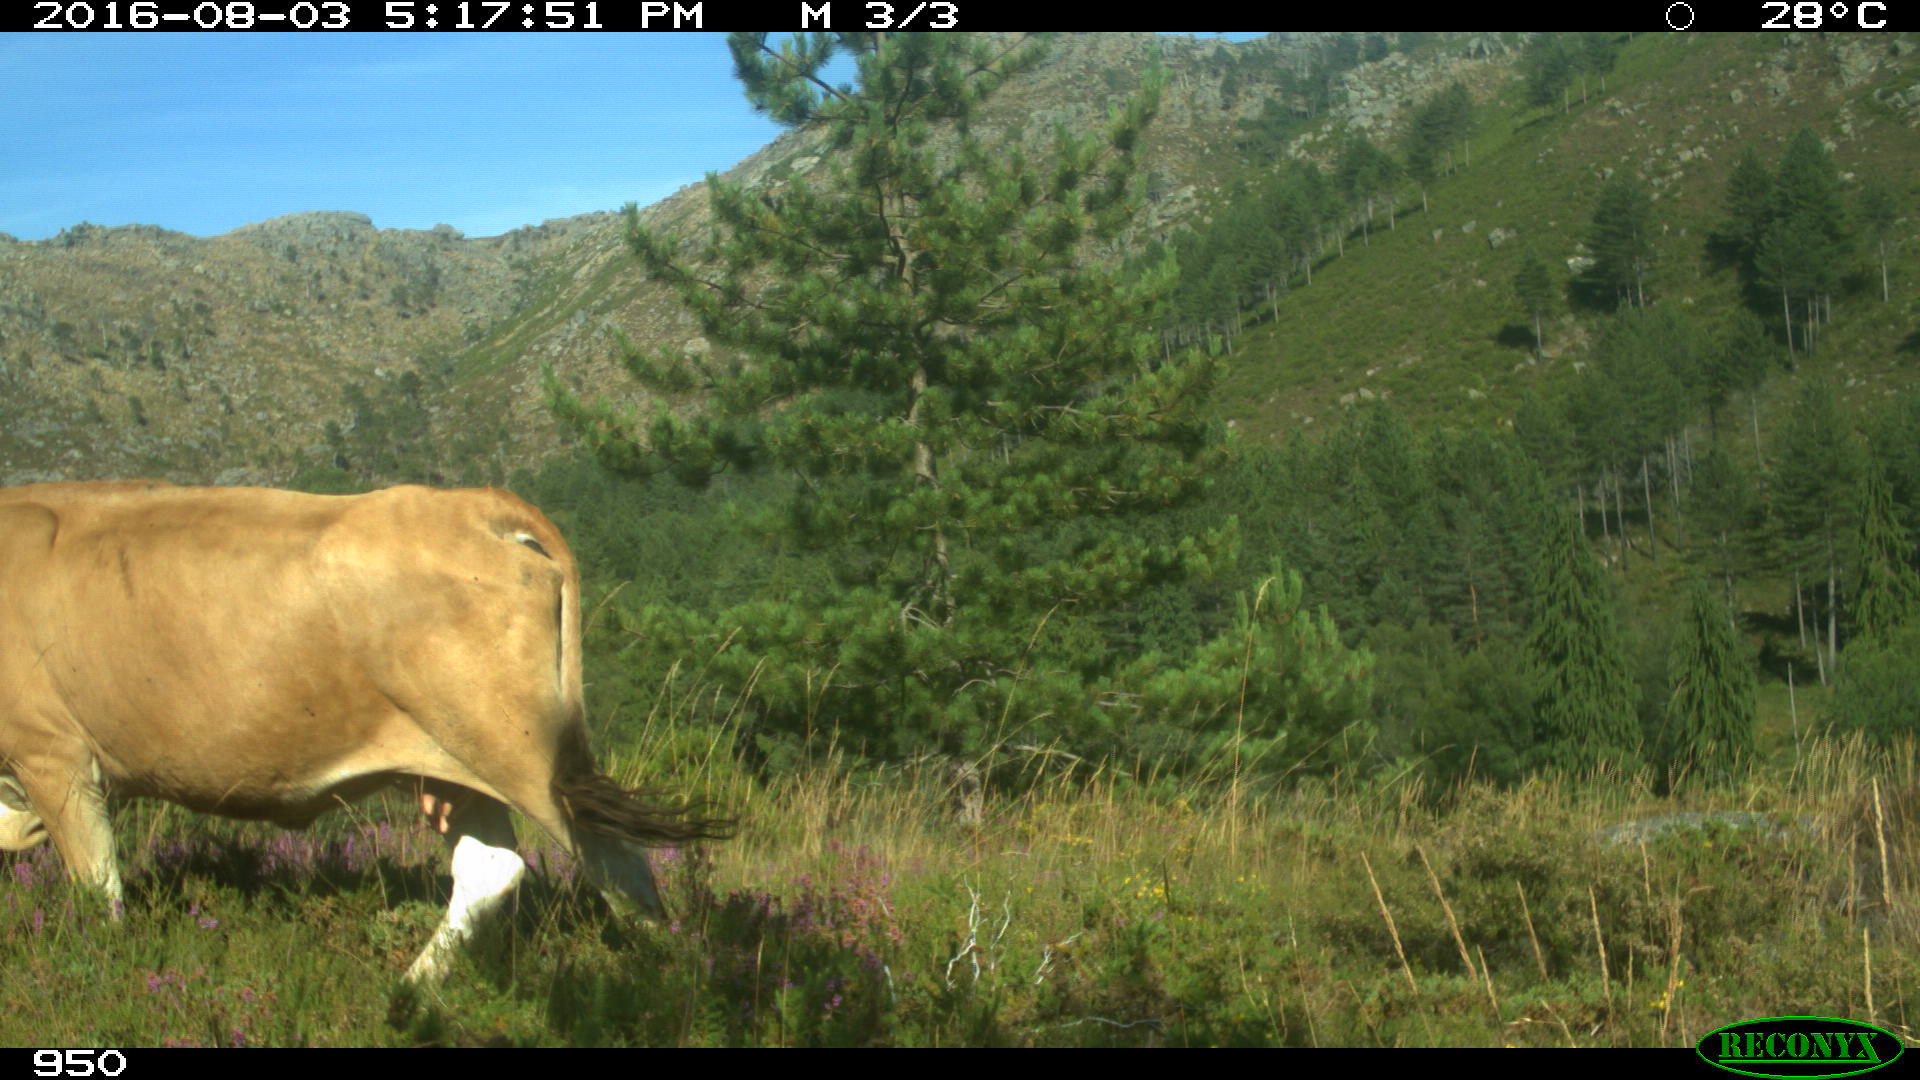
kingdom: Animalia
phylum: Chordata
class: Mammalia
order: Artiodactyla
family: Bovidae
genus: Bos
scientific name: Bos taurus
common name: Domesticated cattle
